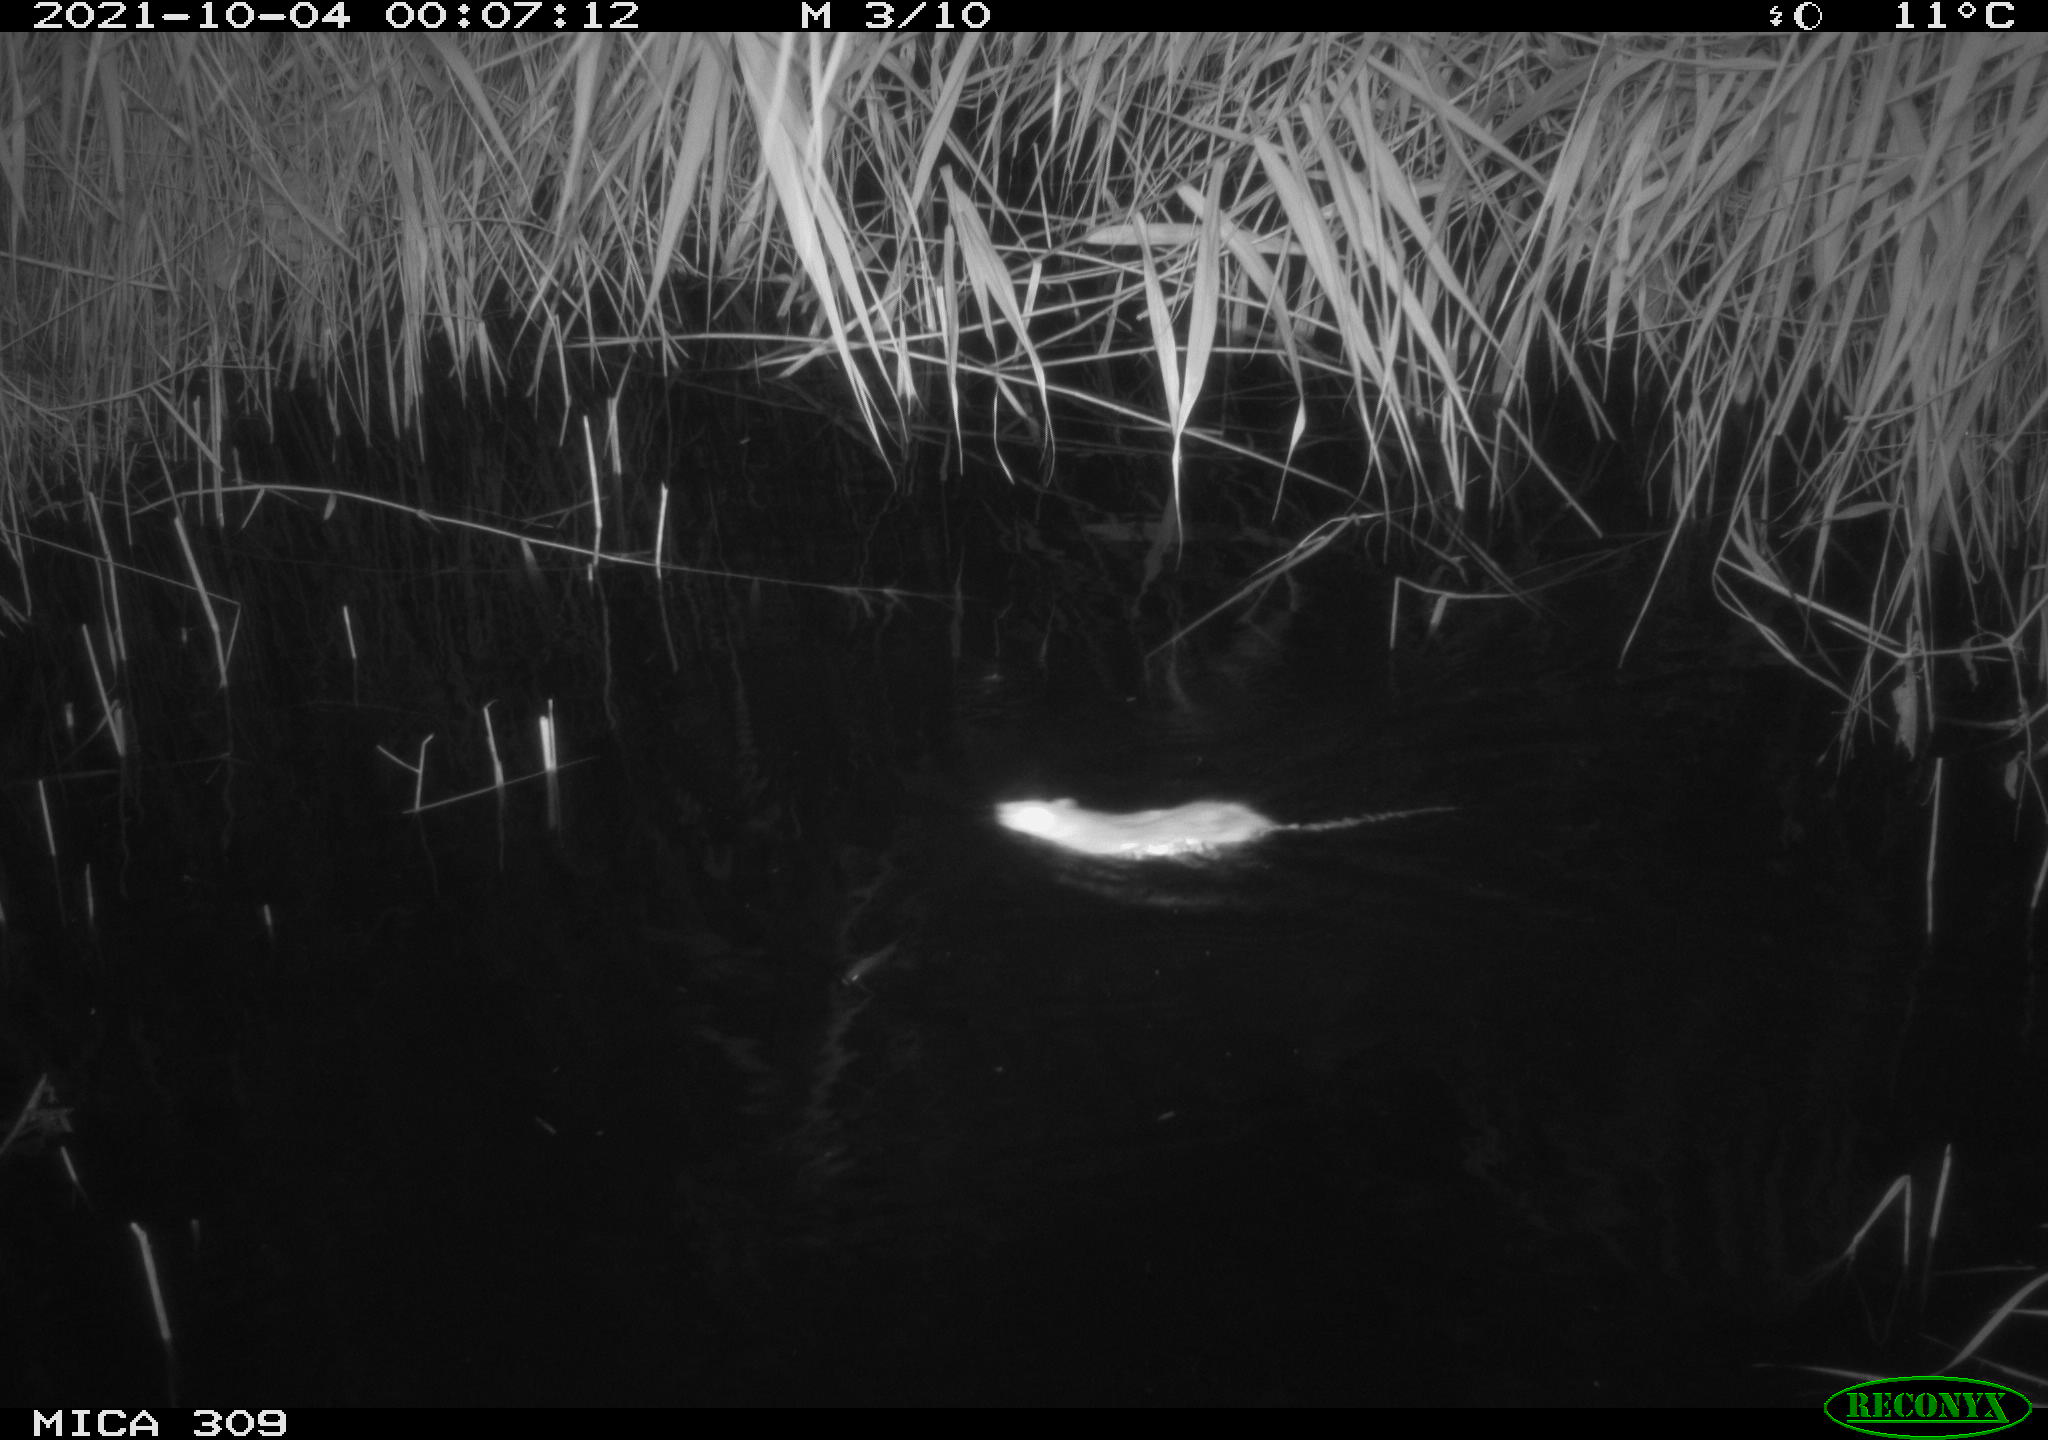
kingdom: Animalia
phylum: Chordata
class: Mammalia
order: Rodentia
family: Muridae
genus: Rattus
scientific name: Rattus norvegicus
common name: Brown rat
